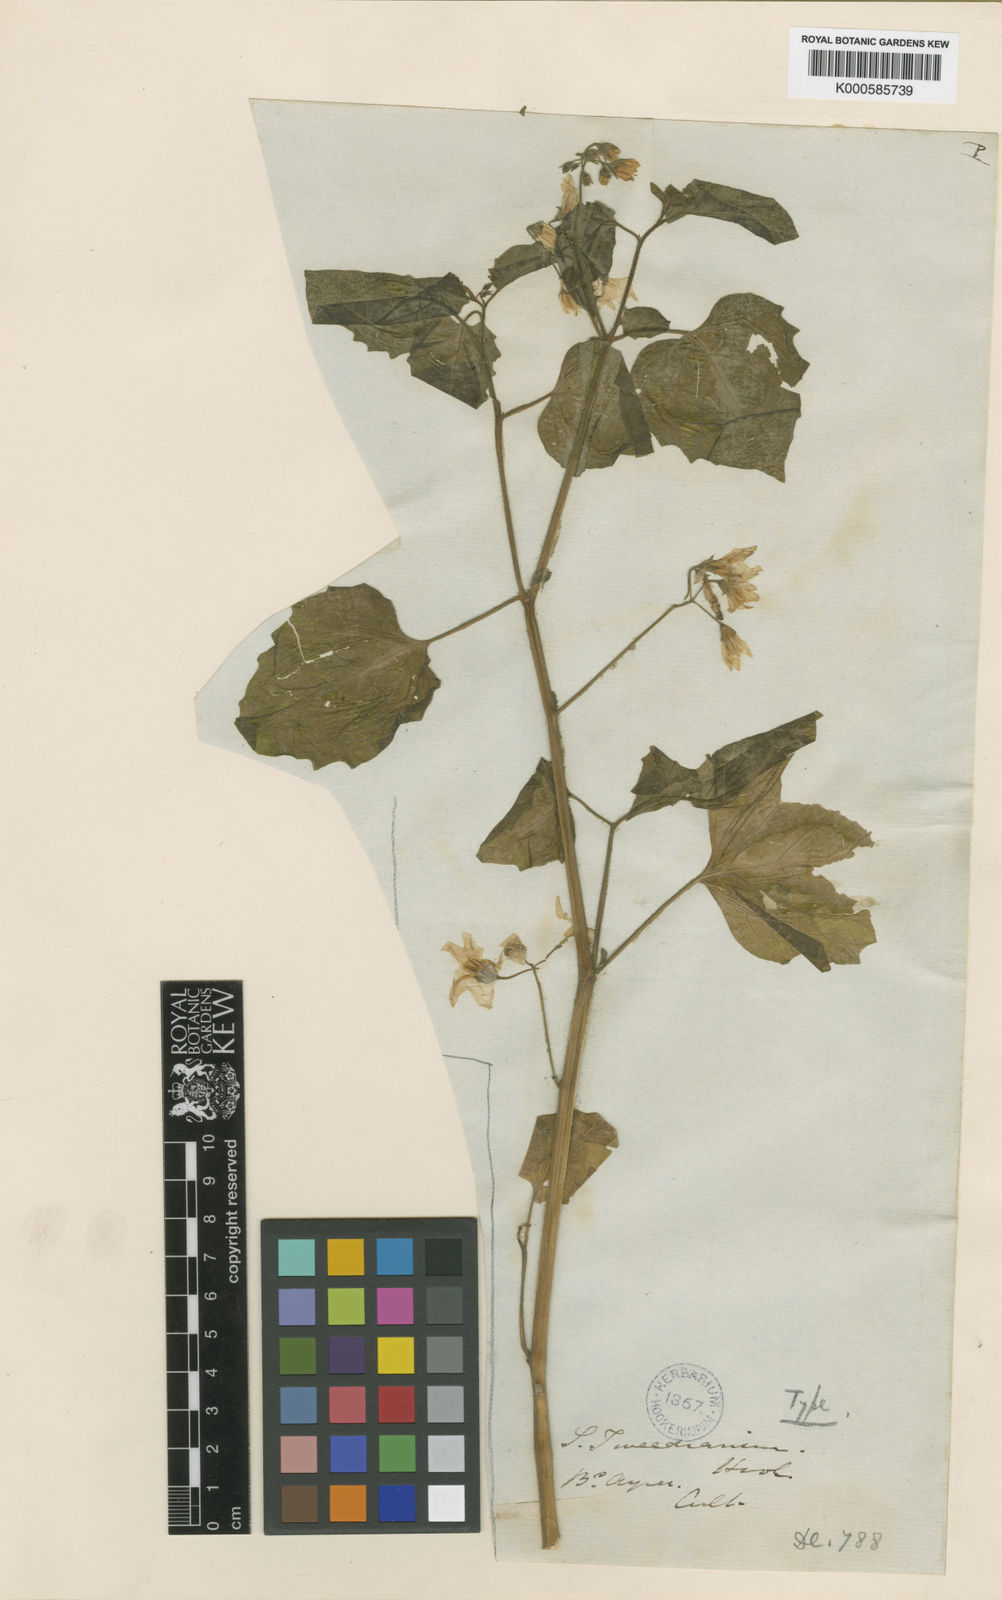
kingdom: Plantae
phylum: Tracheophyta
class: Magnoliopsida
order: Solanales
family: Solanaceae
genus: Solanum
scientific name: Solanum
